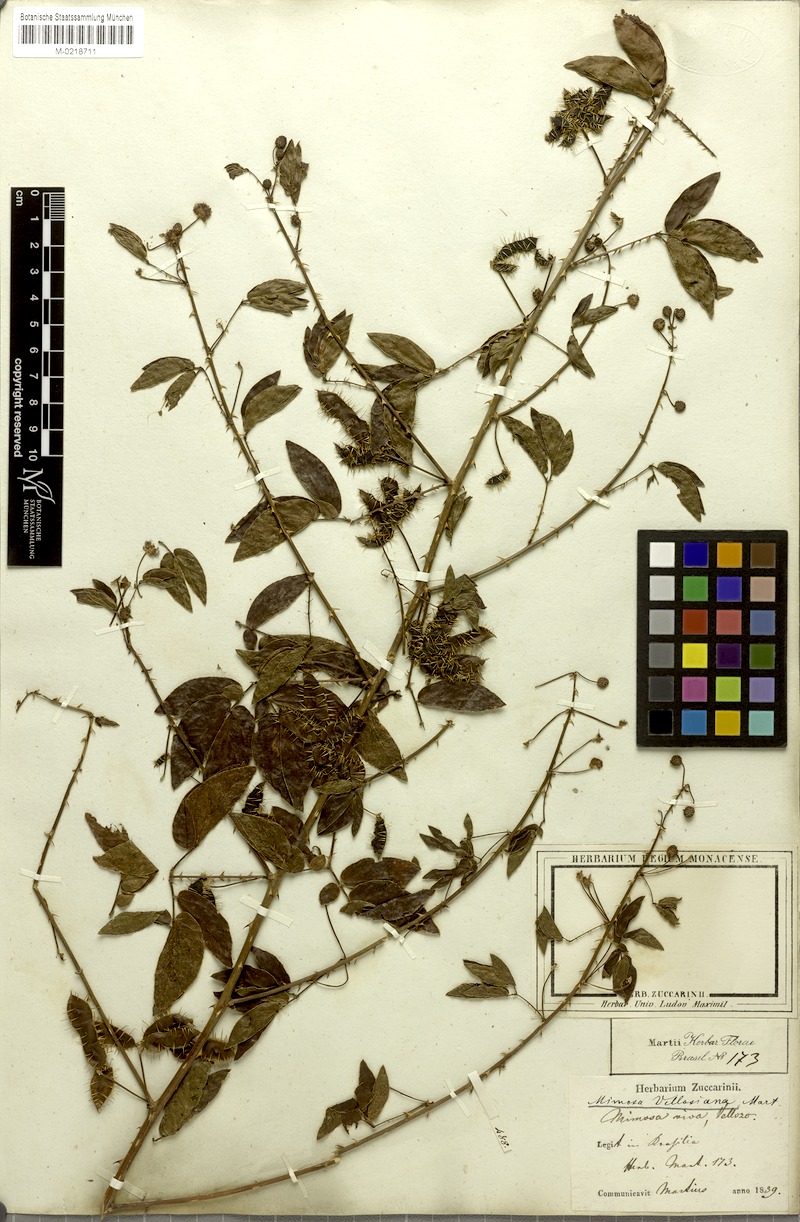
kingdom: Plantae
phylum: Tracheophyta
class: Magnoliopsida
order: Fabales
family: Fabaceae
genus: Mimosa
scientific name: Mimosa velloziana
